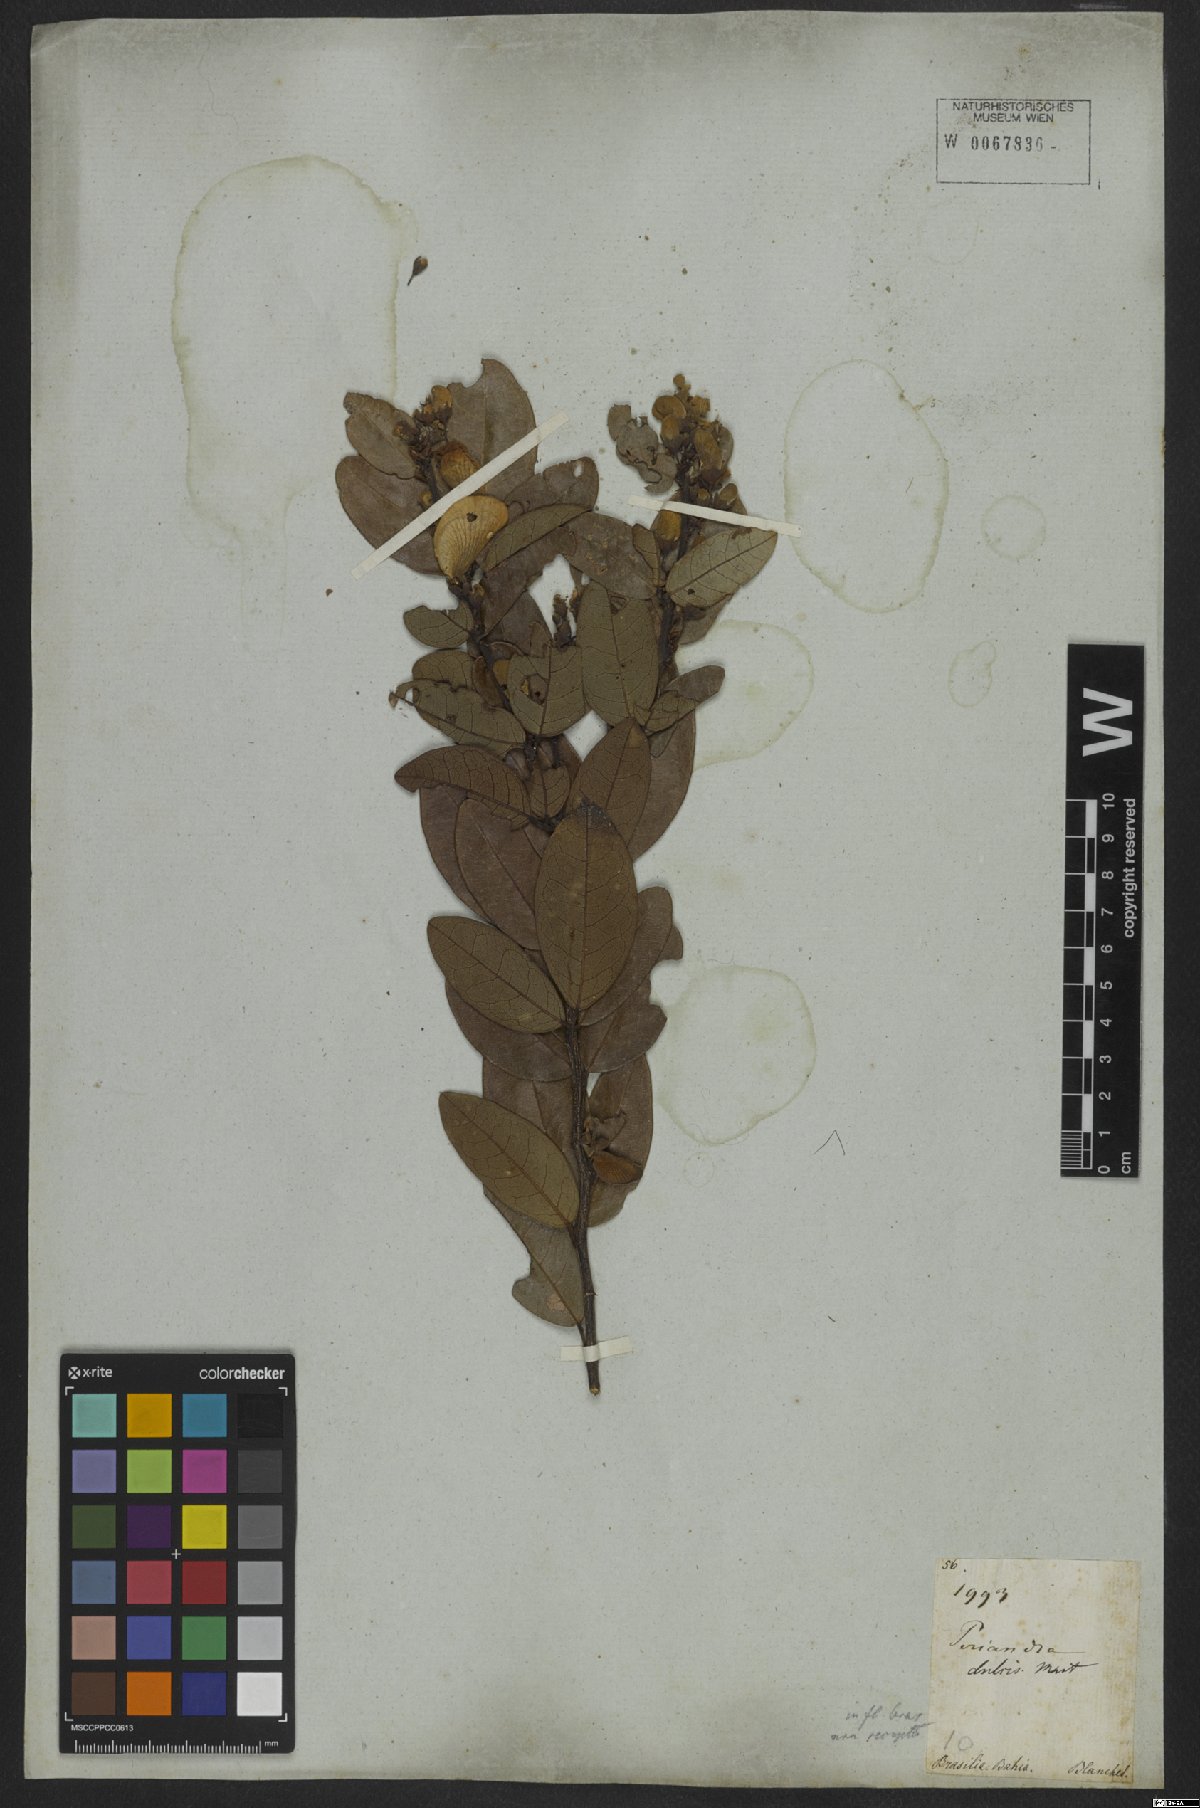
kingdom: Plantae
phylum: Tracheophyta
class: Magnoliopsida
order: Fabales
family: Fabaceae
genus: Periandra
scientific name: Periandra mediterranea
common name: Brazilian licorice
